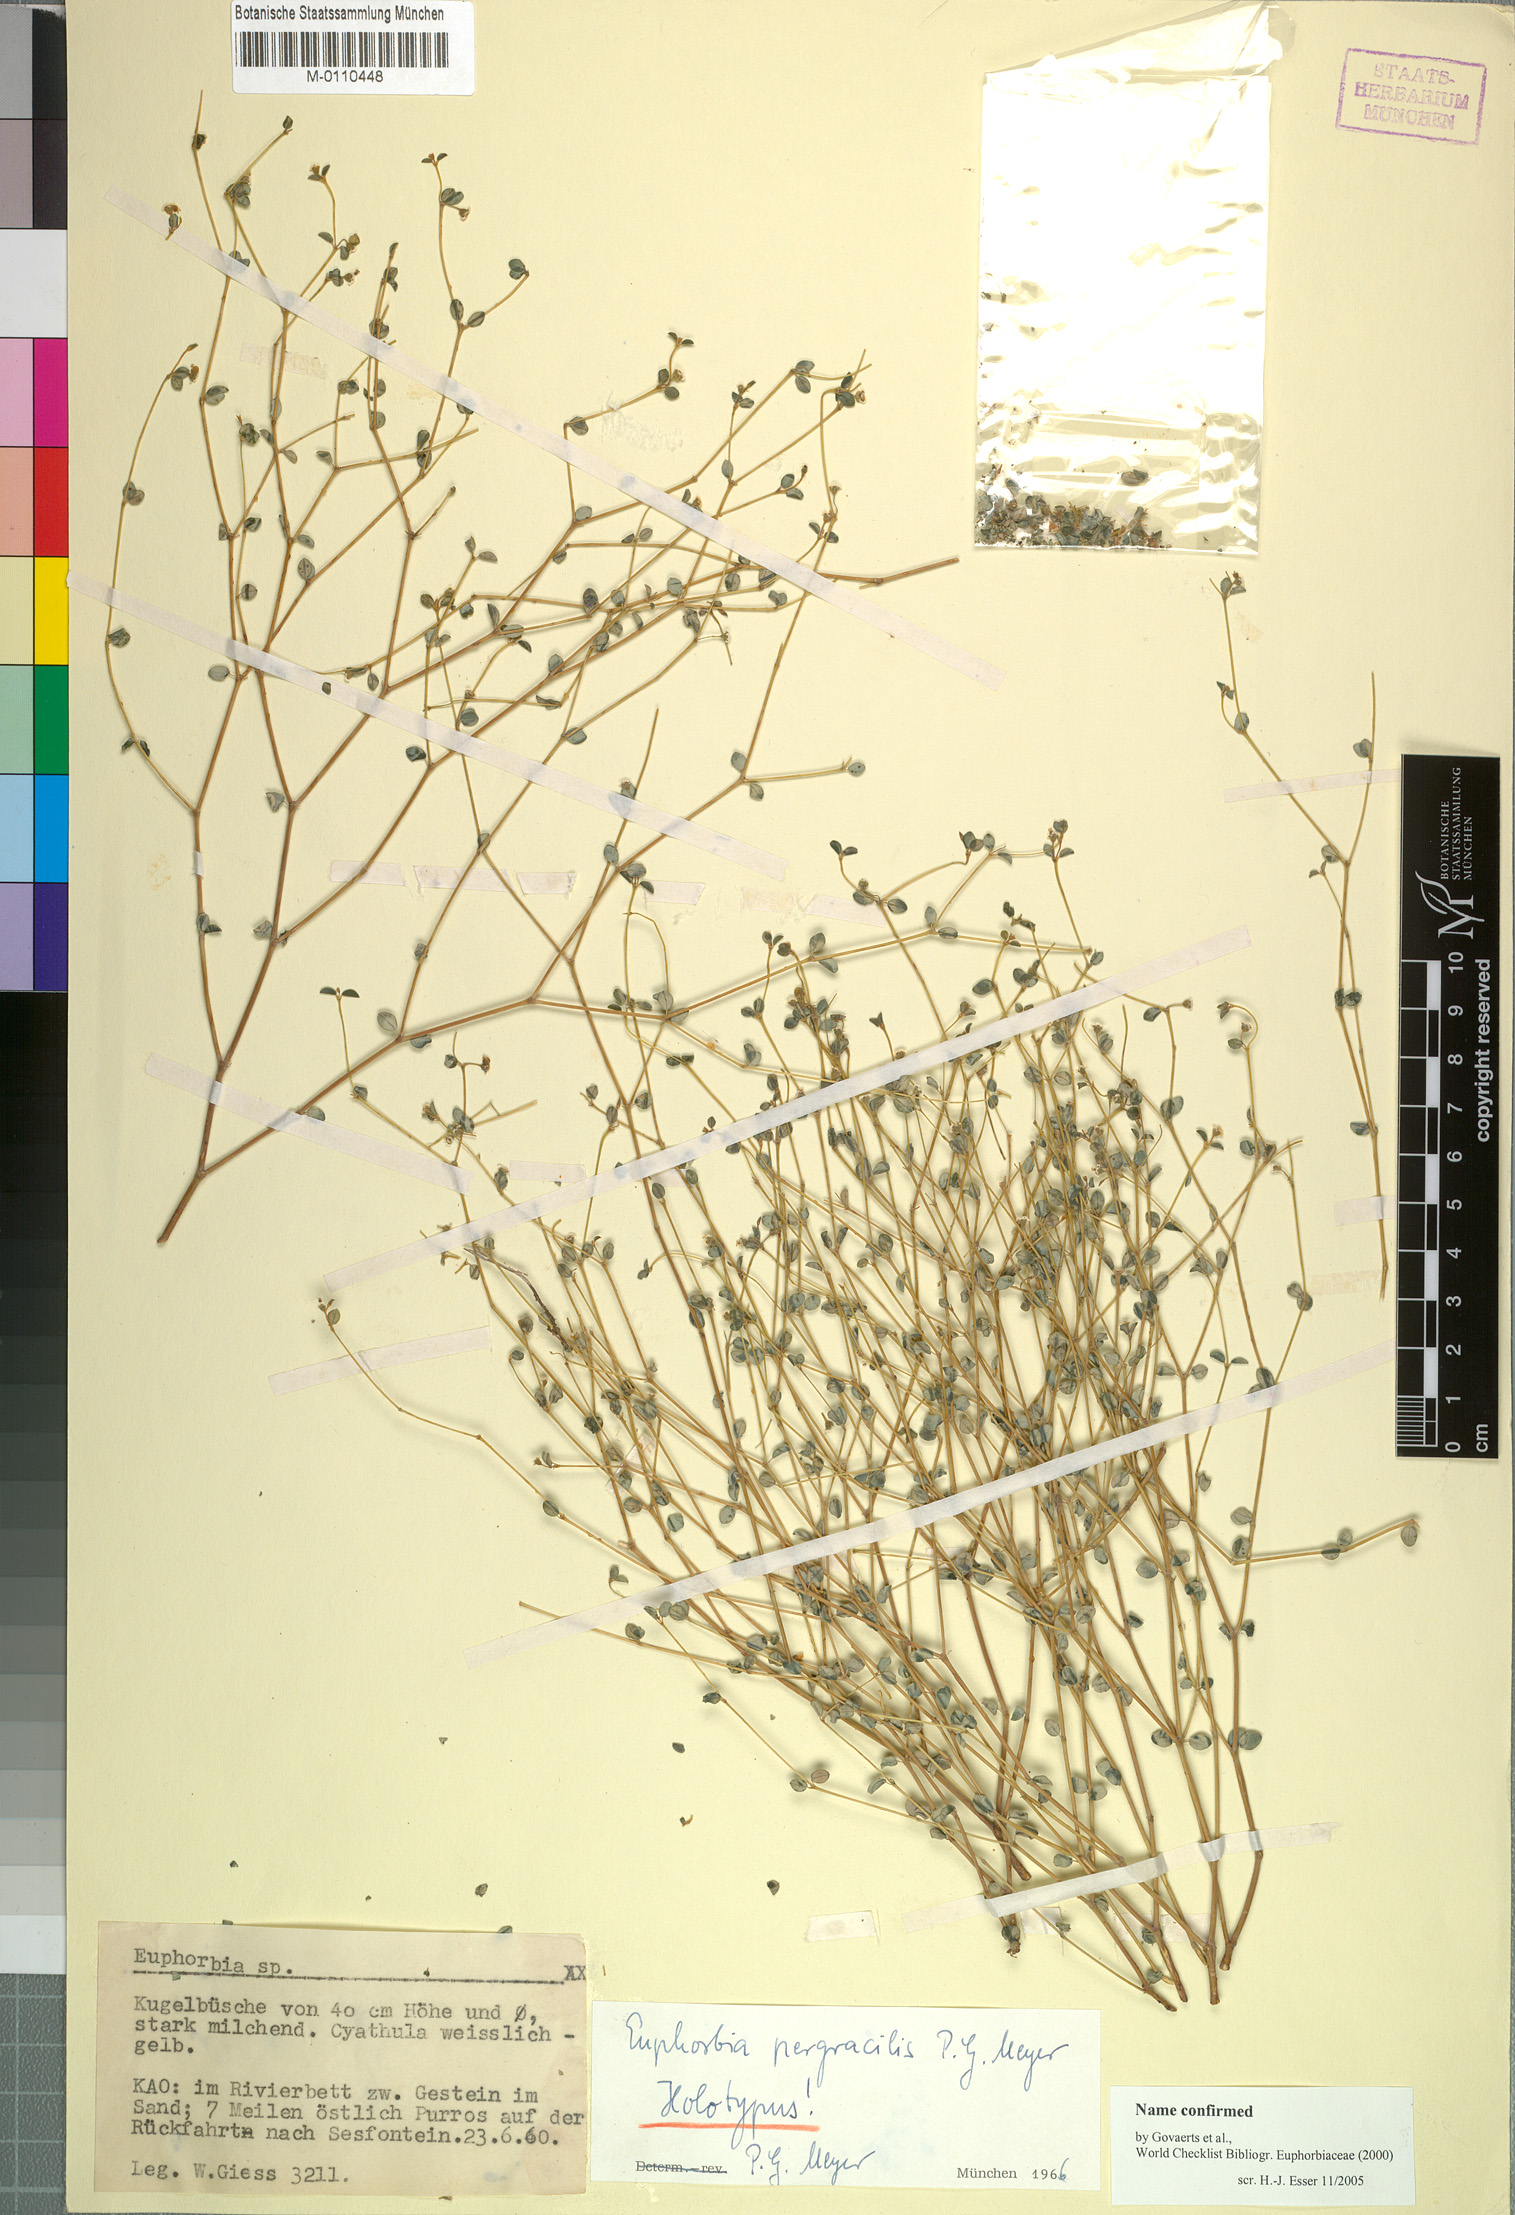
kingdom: Plantae
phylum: Tracheophyta
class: Magnoliopsida
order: Malpighiales
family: Euphorbiaceae
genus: Euphorbia
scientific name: Euphorbia pergracilis
